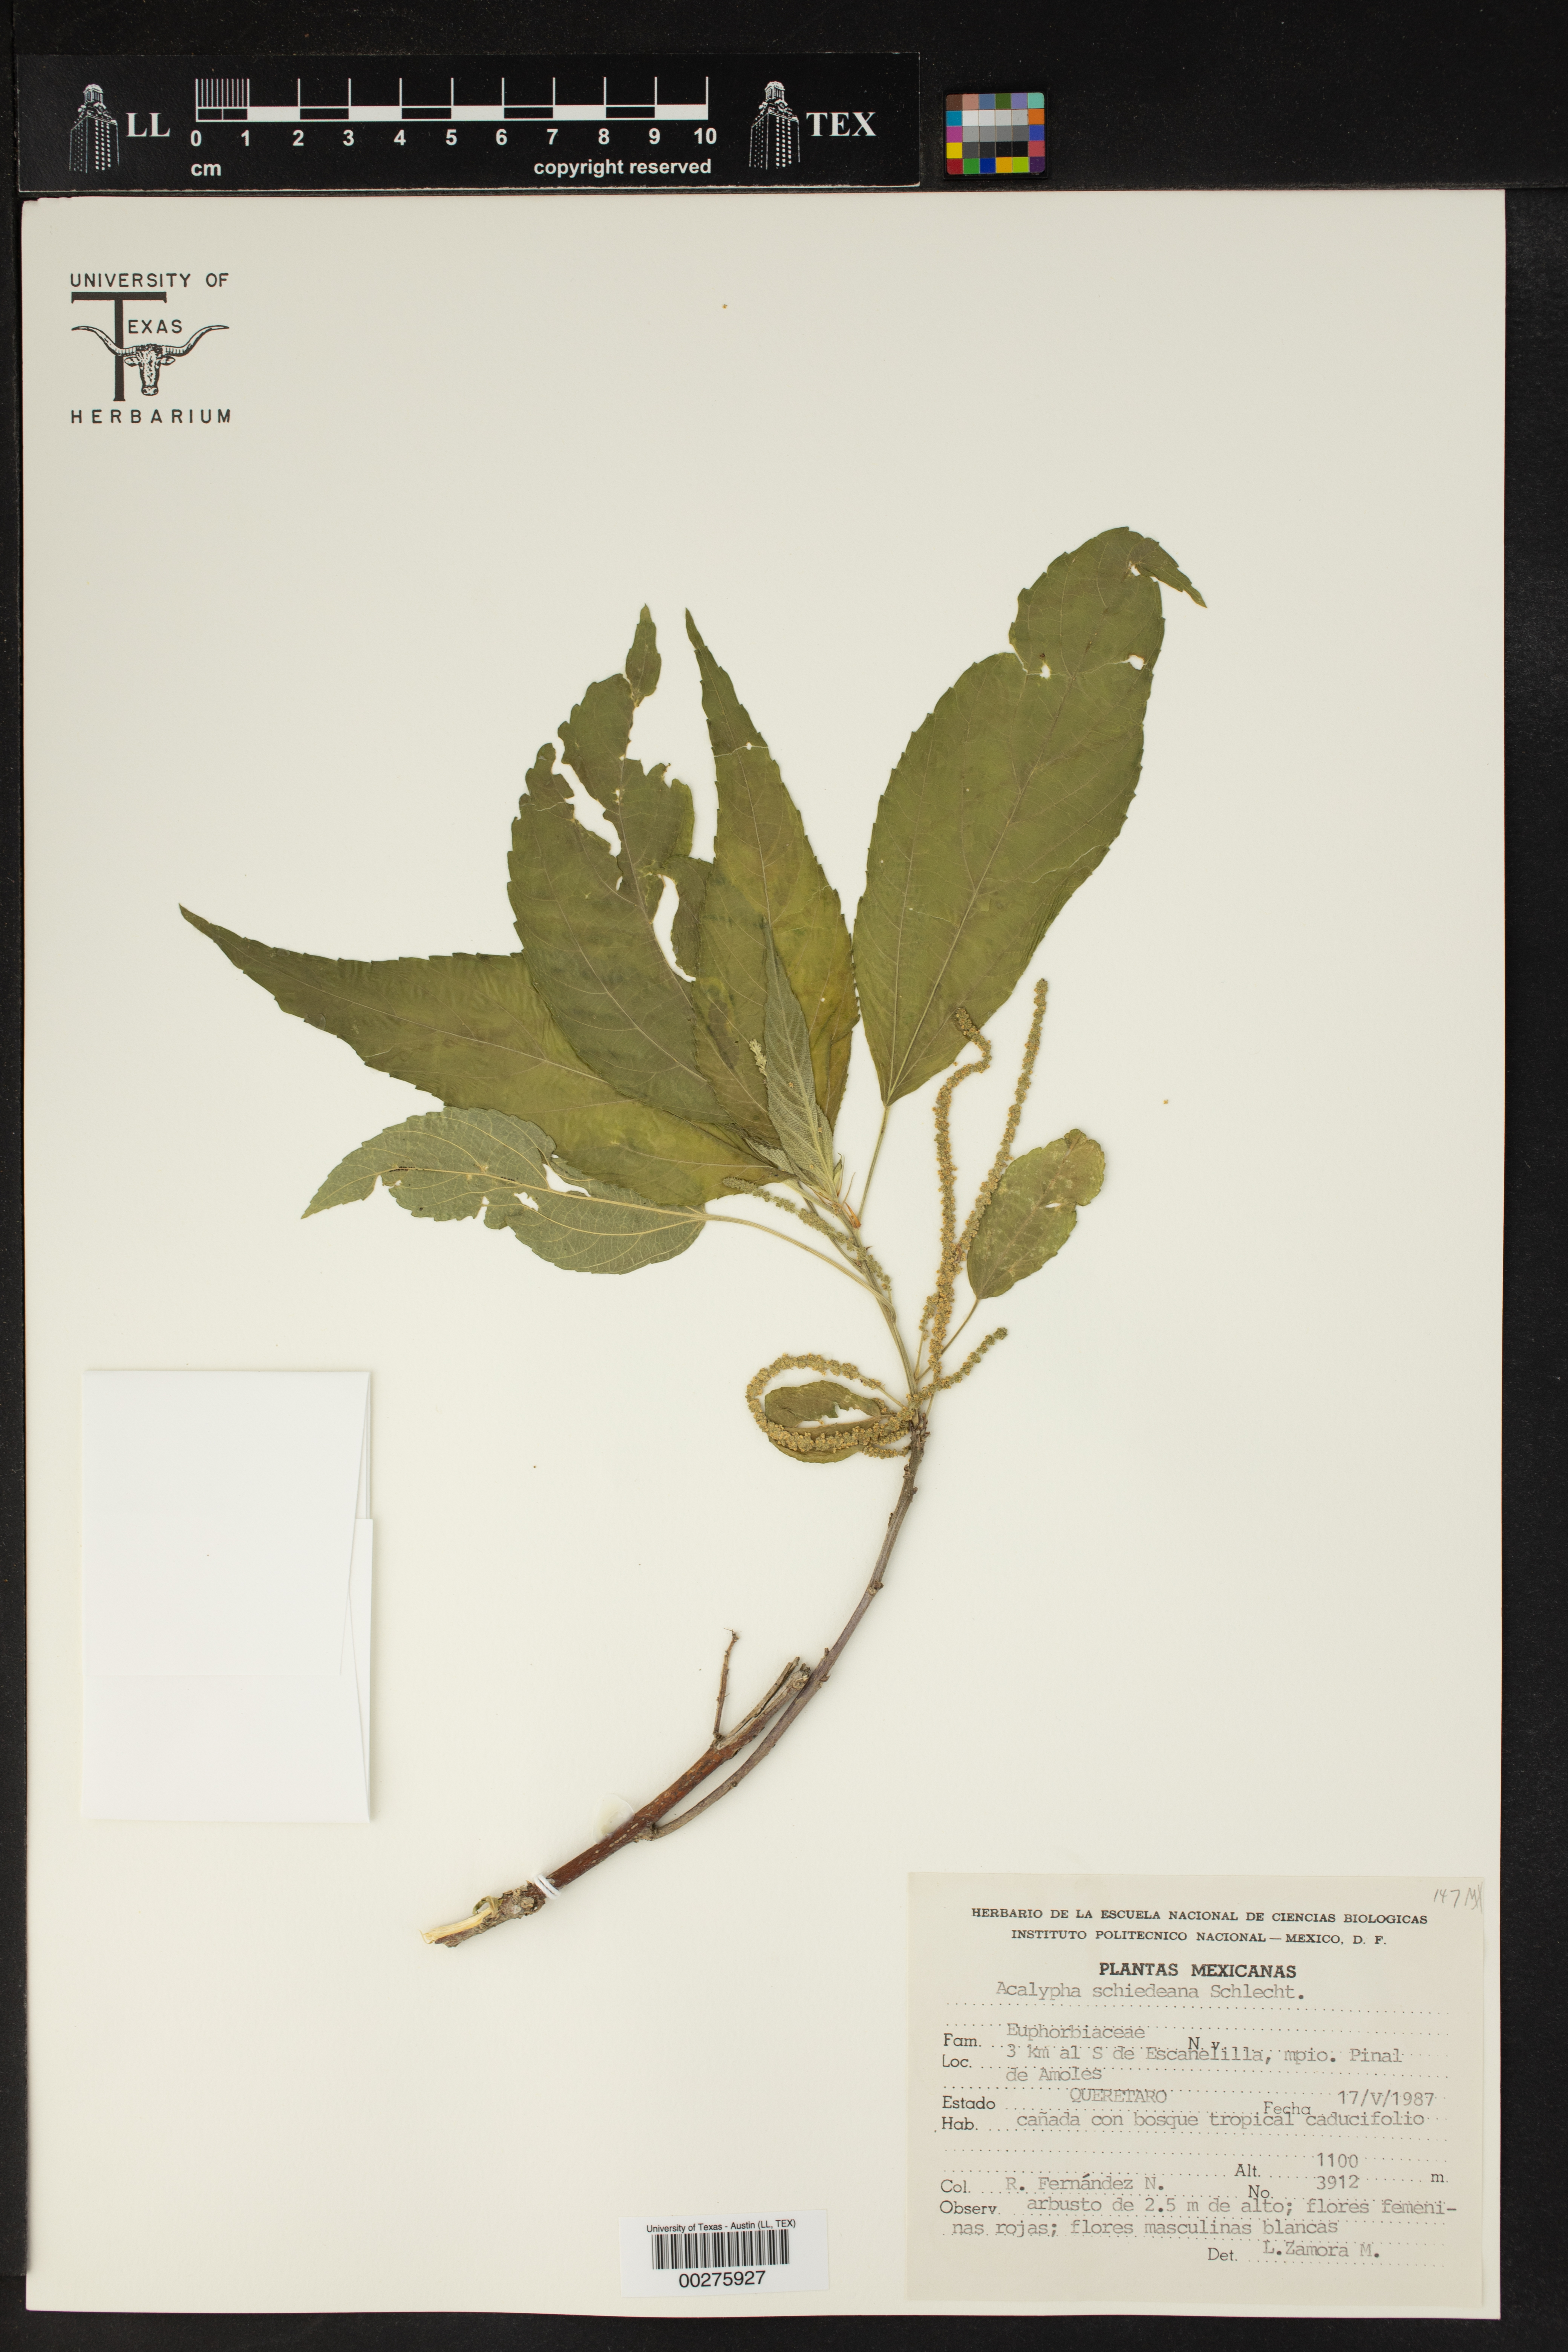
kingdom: Plantae
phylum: Tracheophyta
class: Magnoliopsida
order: Malpighiales
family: Euphorbiaceae
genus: Acalypha
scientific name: Acalypha schiedeana
